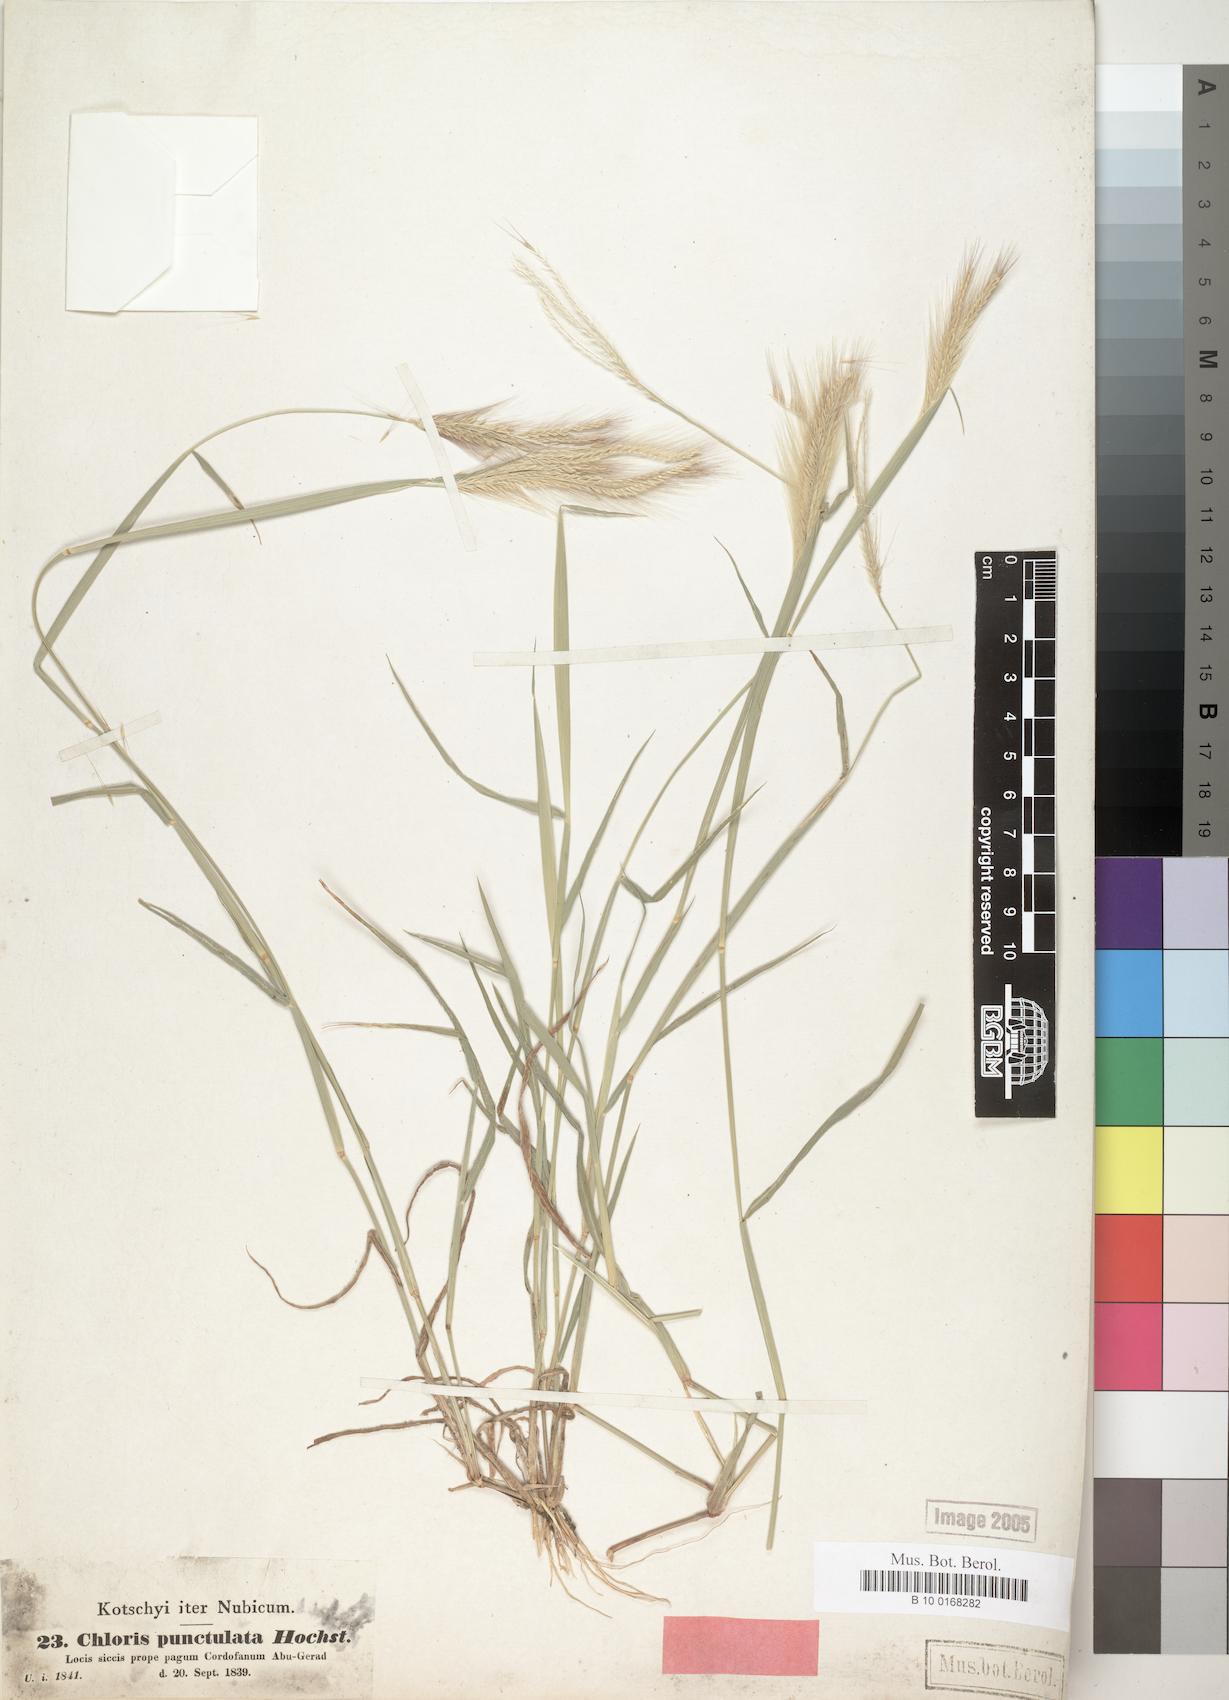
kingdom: Plantae
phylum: Tracheophyta
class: Liliopsida
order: Poales
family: Poaceae
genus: Enteropogon
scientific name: Enteropogon prieurii
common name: Prieur's umbrellagrass
